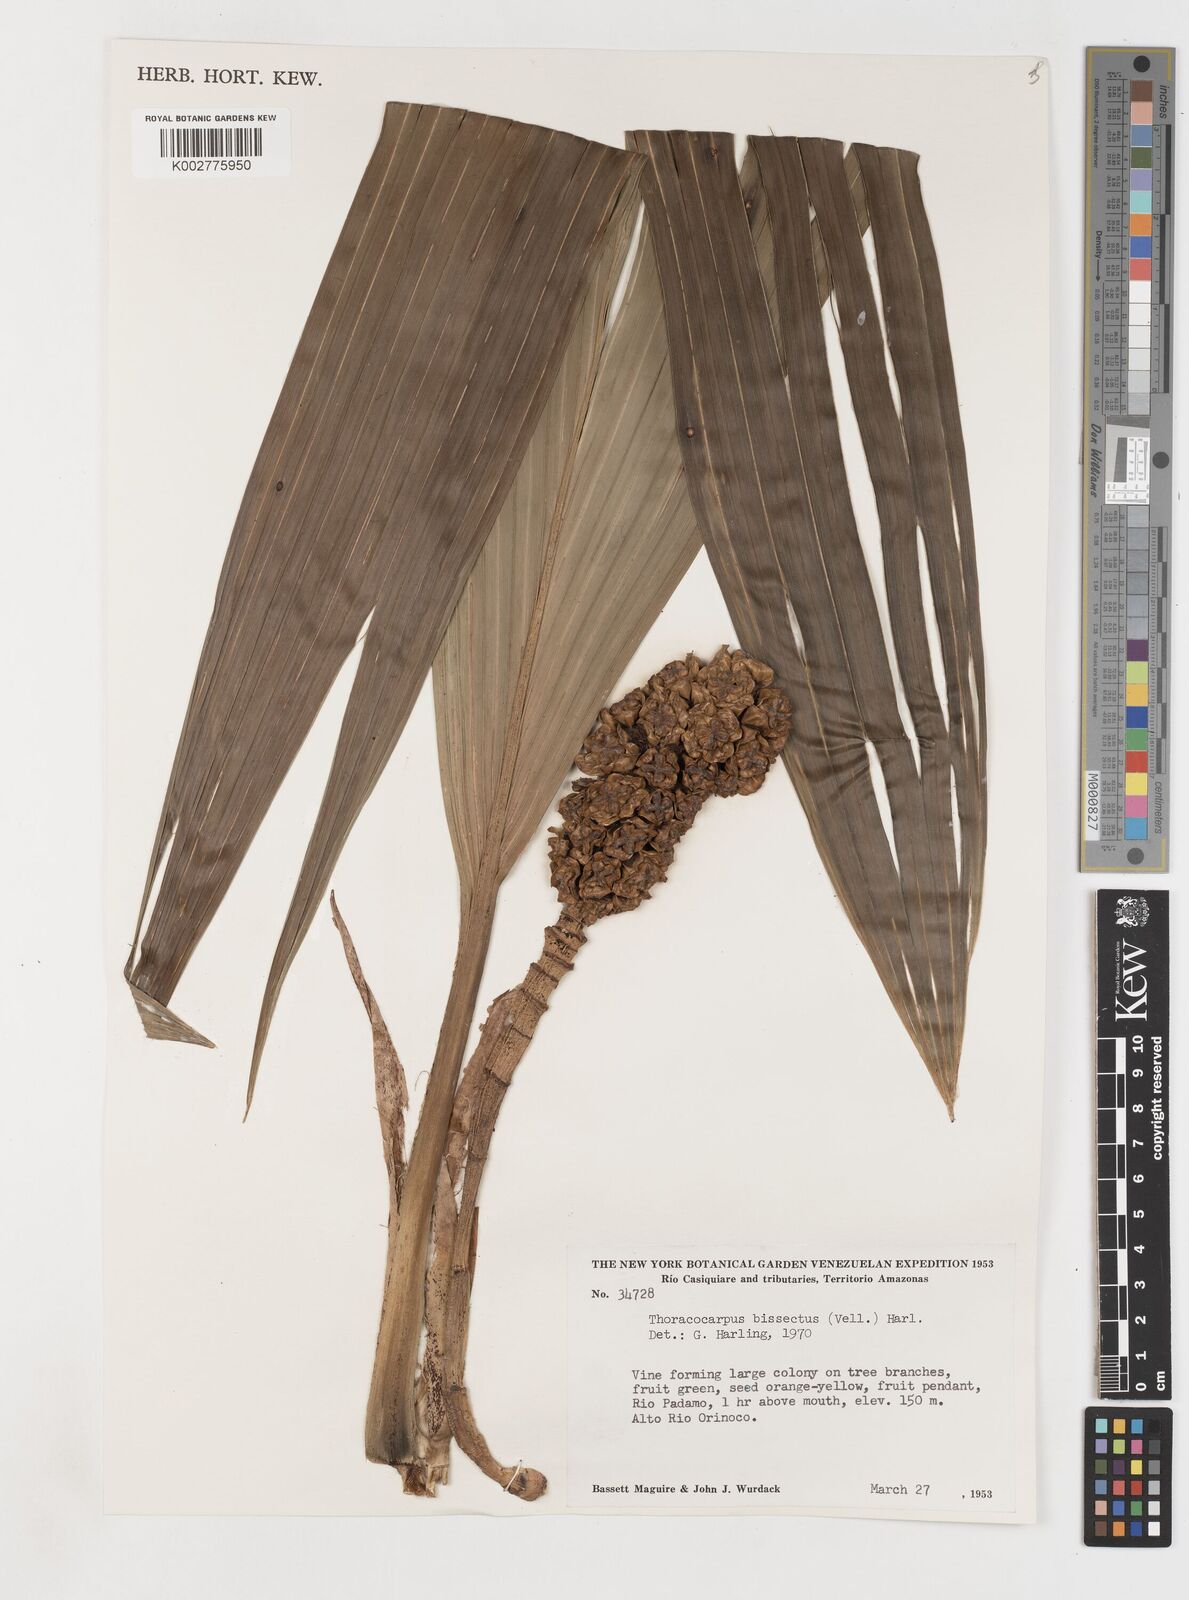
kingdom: Plantae
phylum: Tracheophyta
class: Liliopsida
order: Pandanales
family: Cyclanthaceae
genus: Thoracocarpus
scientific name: Thoracocarpus bissectus
